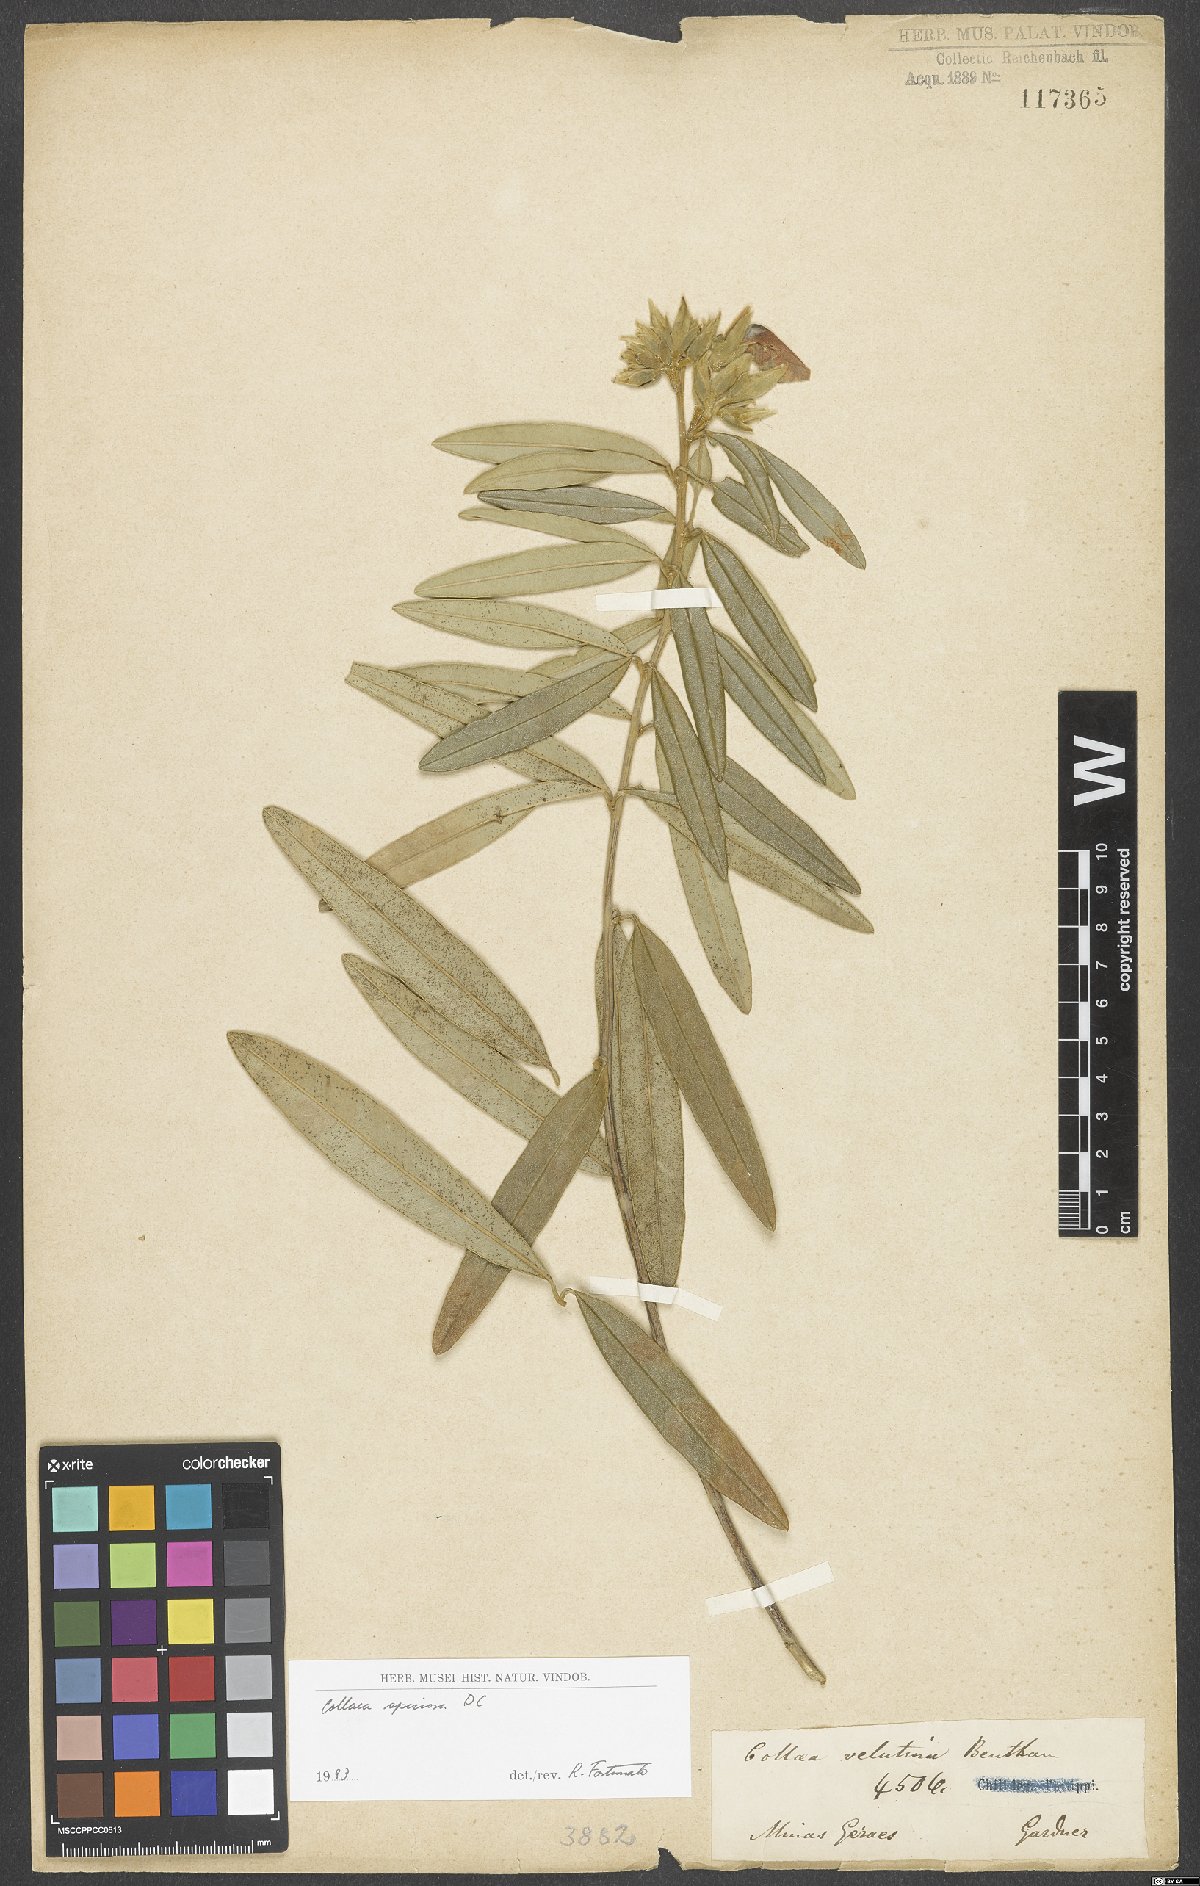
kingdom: Plantae
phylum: Tracheophyta
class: Magnoliopsida
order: Fabales
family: Fabaceae
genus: Collaea
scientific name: Collaea speciosa
